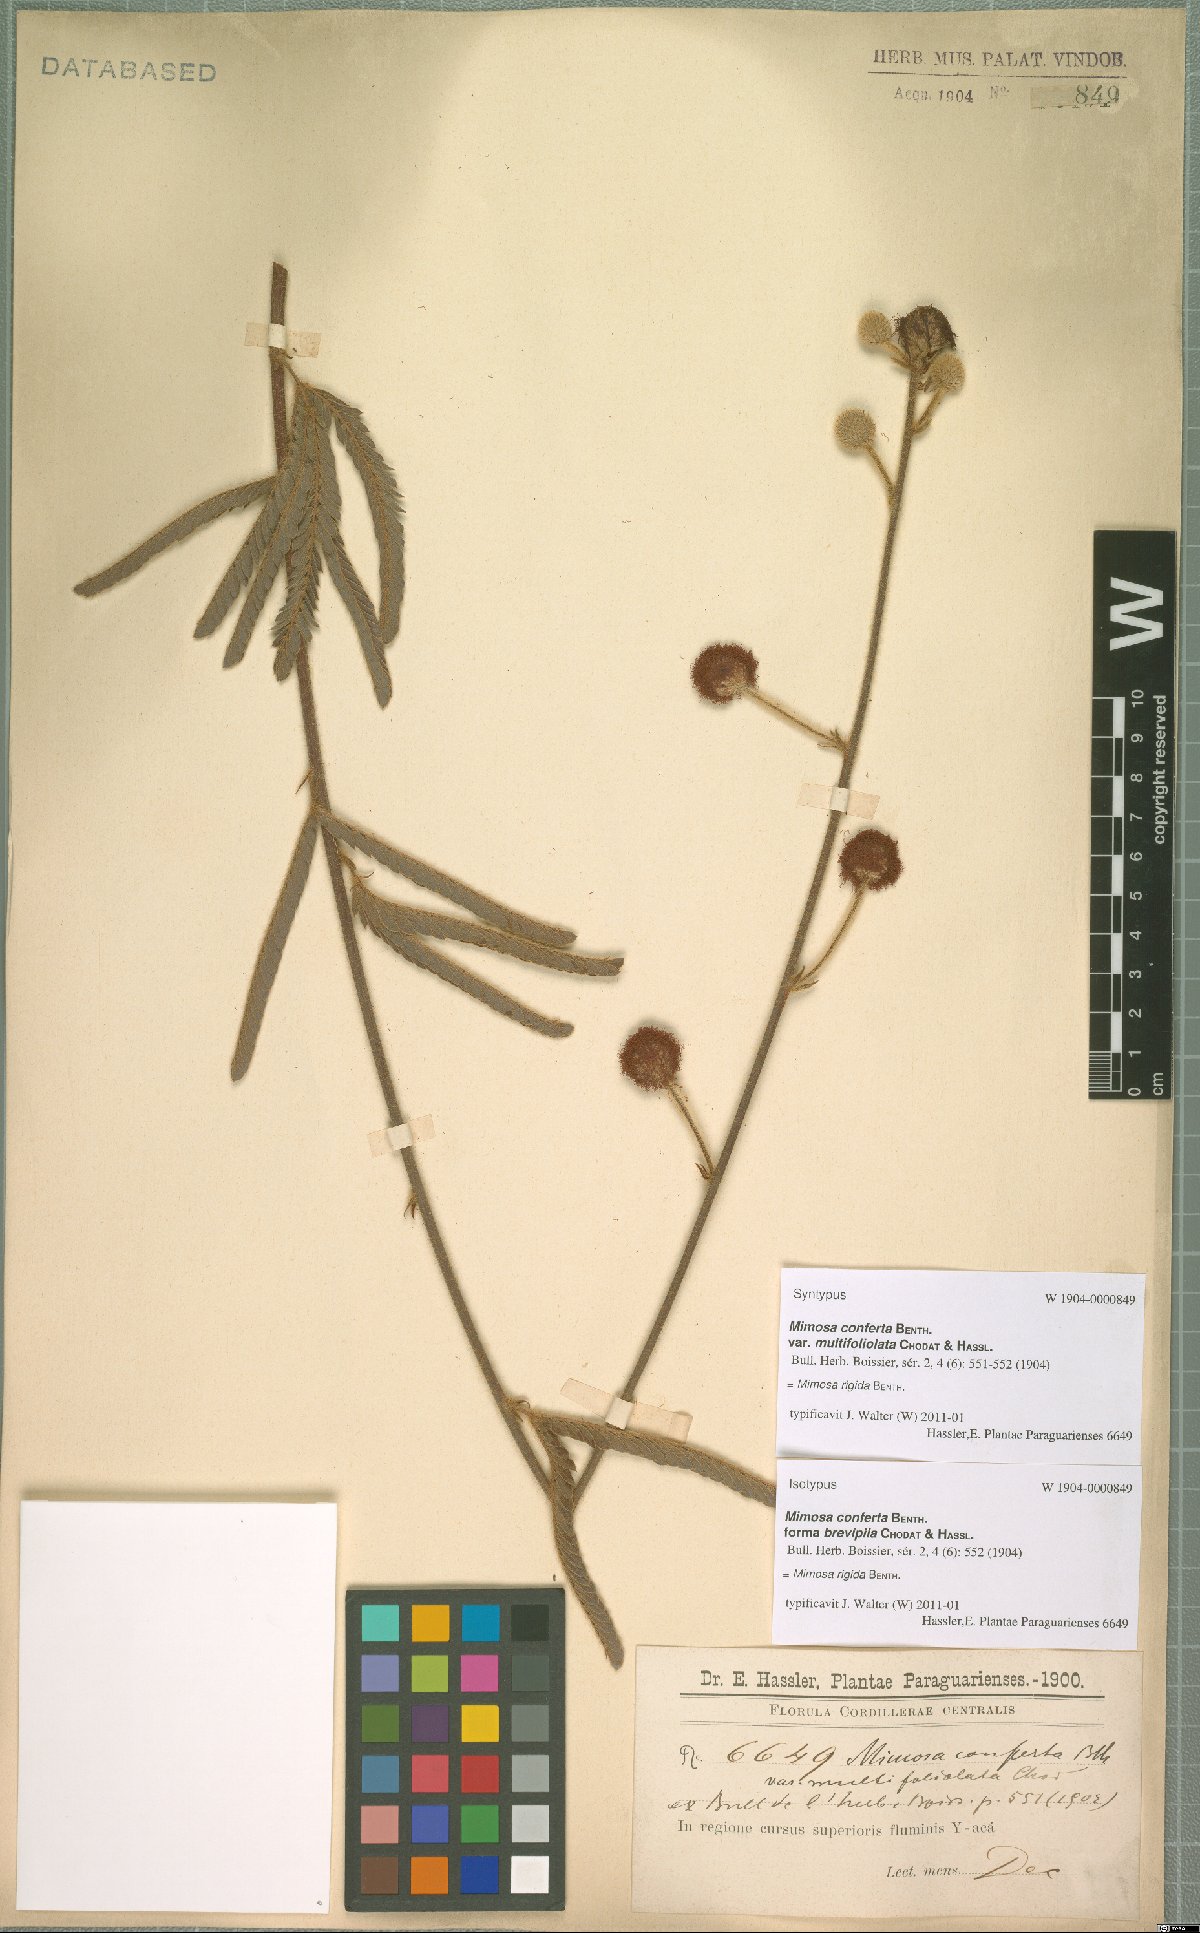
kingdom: Plantae
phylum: Tracheophyta
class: Magnoliopsida
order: Fabales
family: Fabaceae
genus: Mimosa
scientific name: Mimosa dolens
